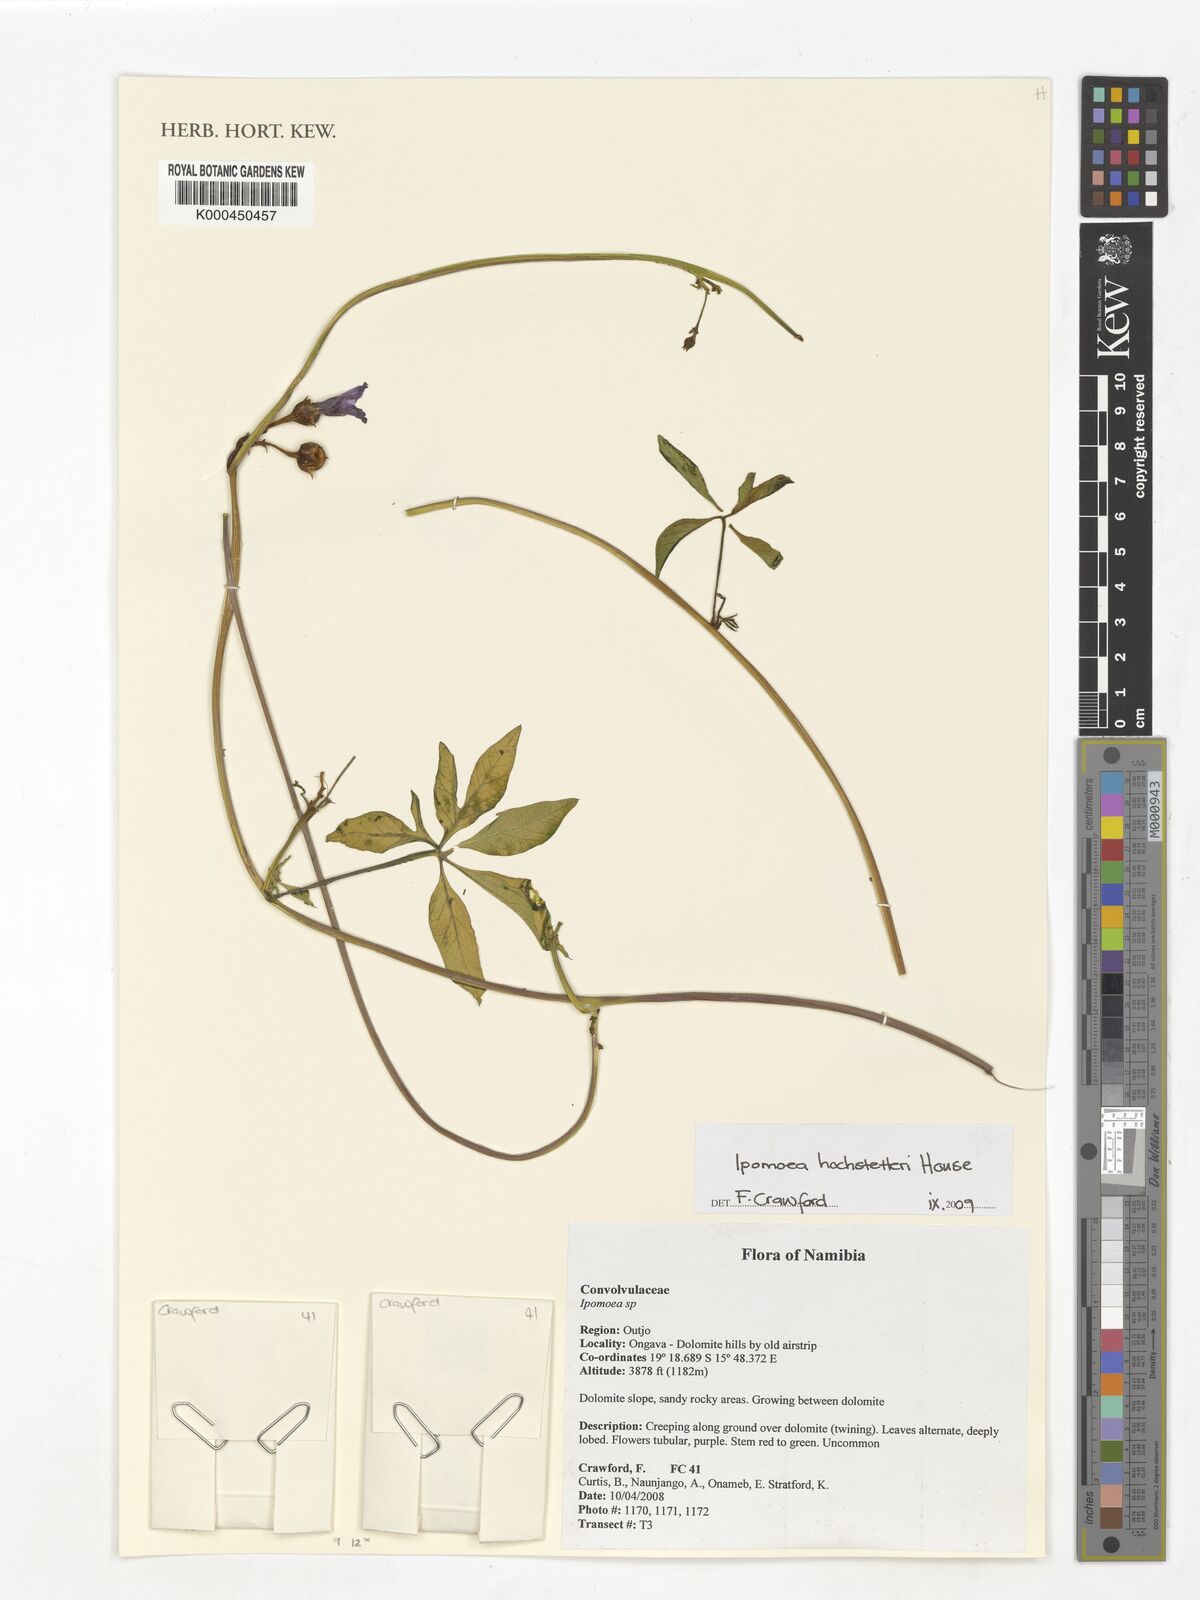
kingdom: Plantae
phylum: Tracheophyta
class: Magnoliopsida
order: Solanales
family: Convolvulaceae
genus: Ipomoea
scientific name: Ipomoea hochstetteri
